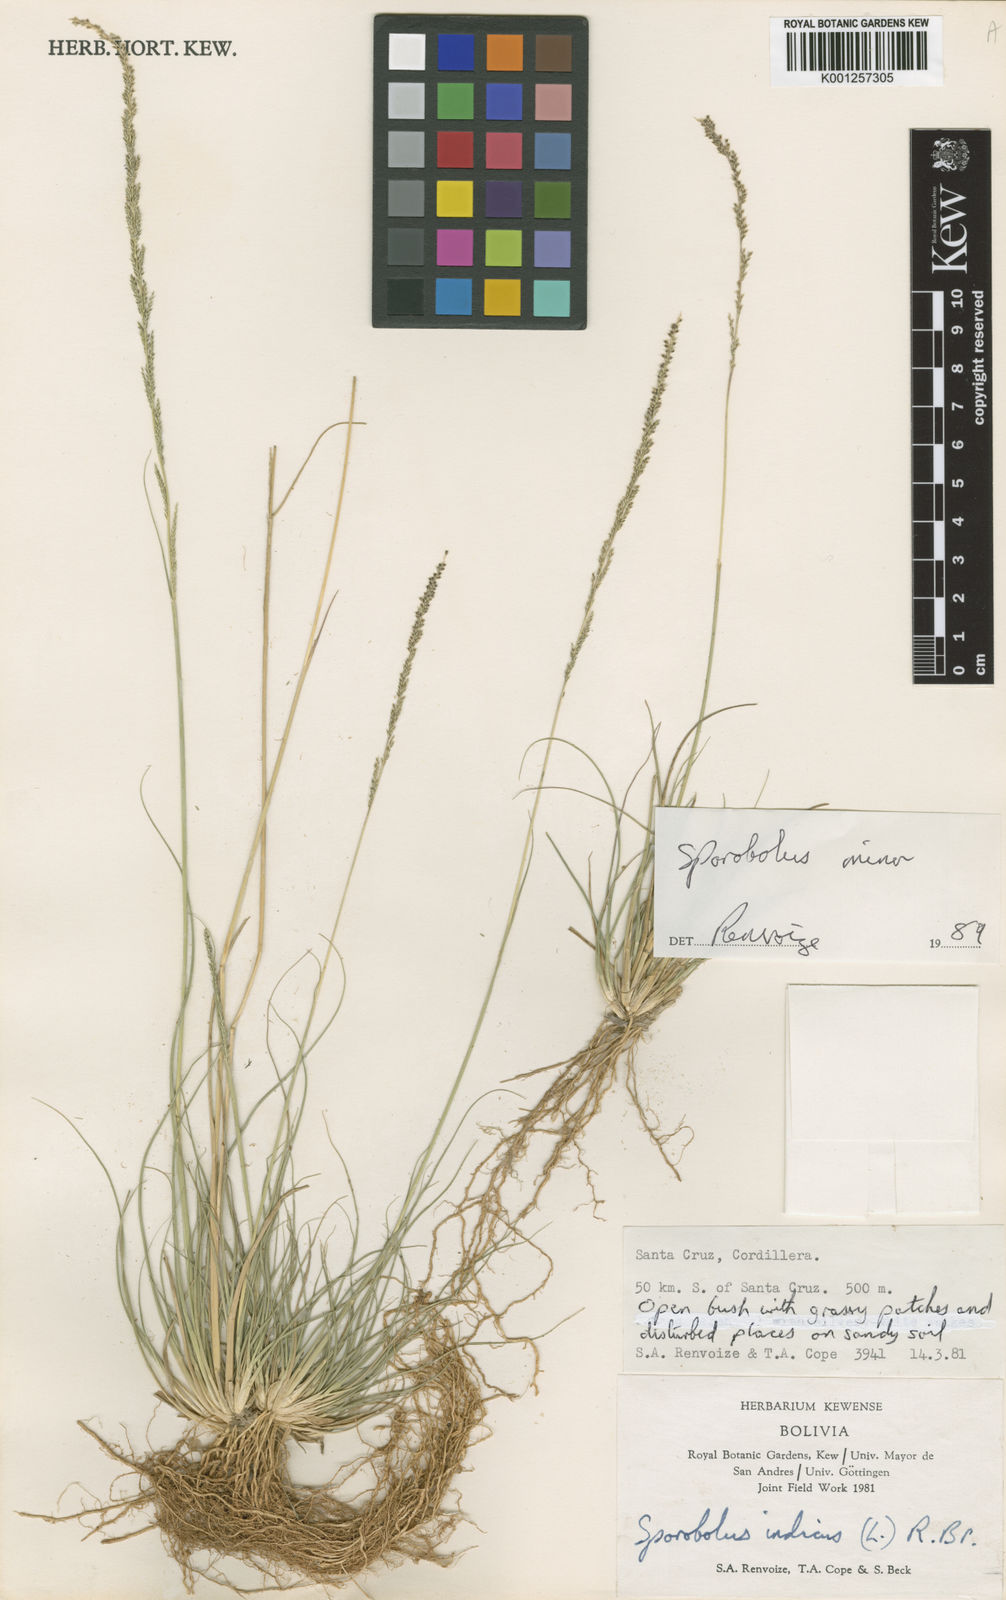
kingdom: Plantae
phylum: Tracheophyta
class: Liliopsida
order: Poales
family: Poaceae
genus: Sporobolus
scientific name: Sporobolus
